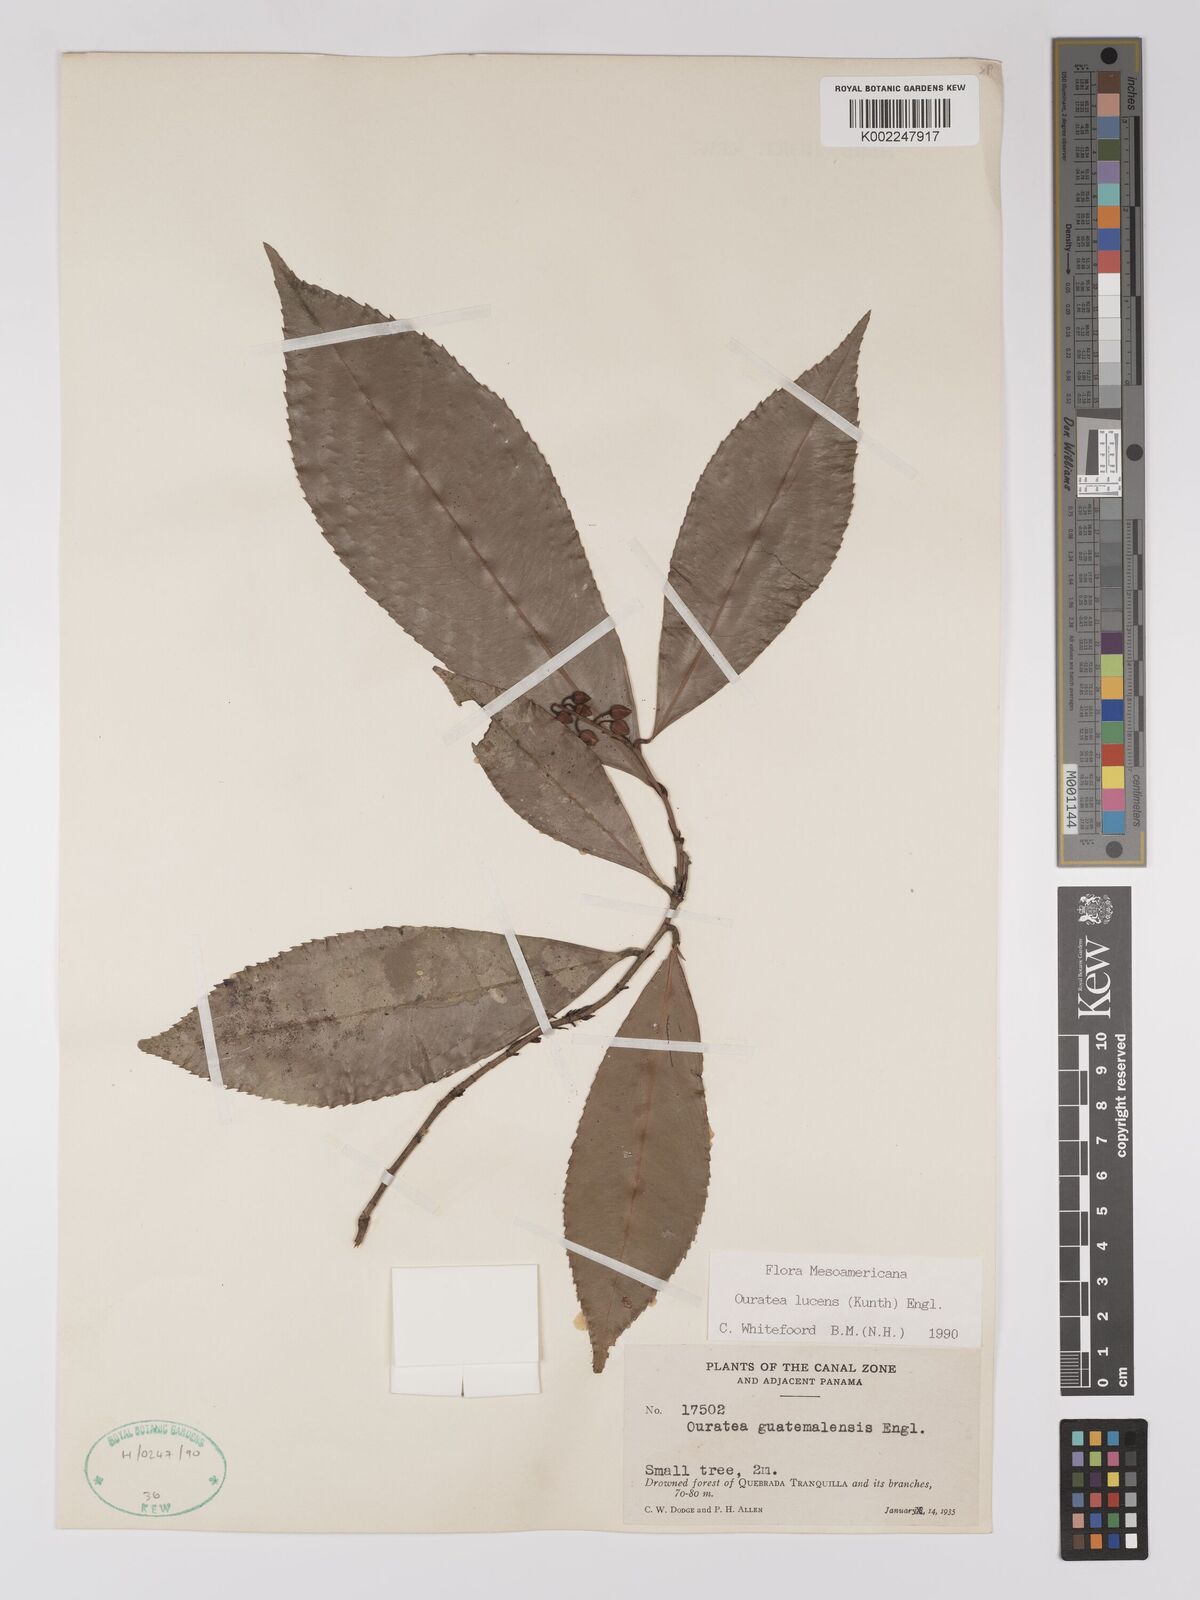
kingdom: Plantae
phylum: Tracheophyta
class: Magnoliopsida
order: Malpighiales
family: Ochnaceae
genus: Ouratea
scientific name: Ouratea lucens
